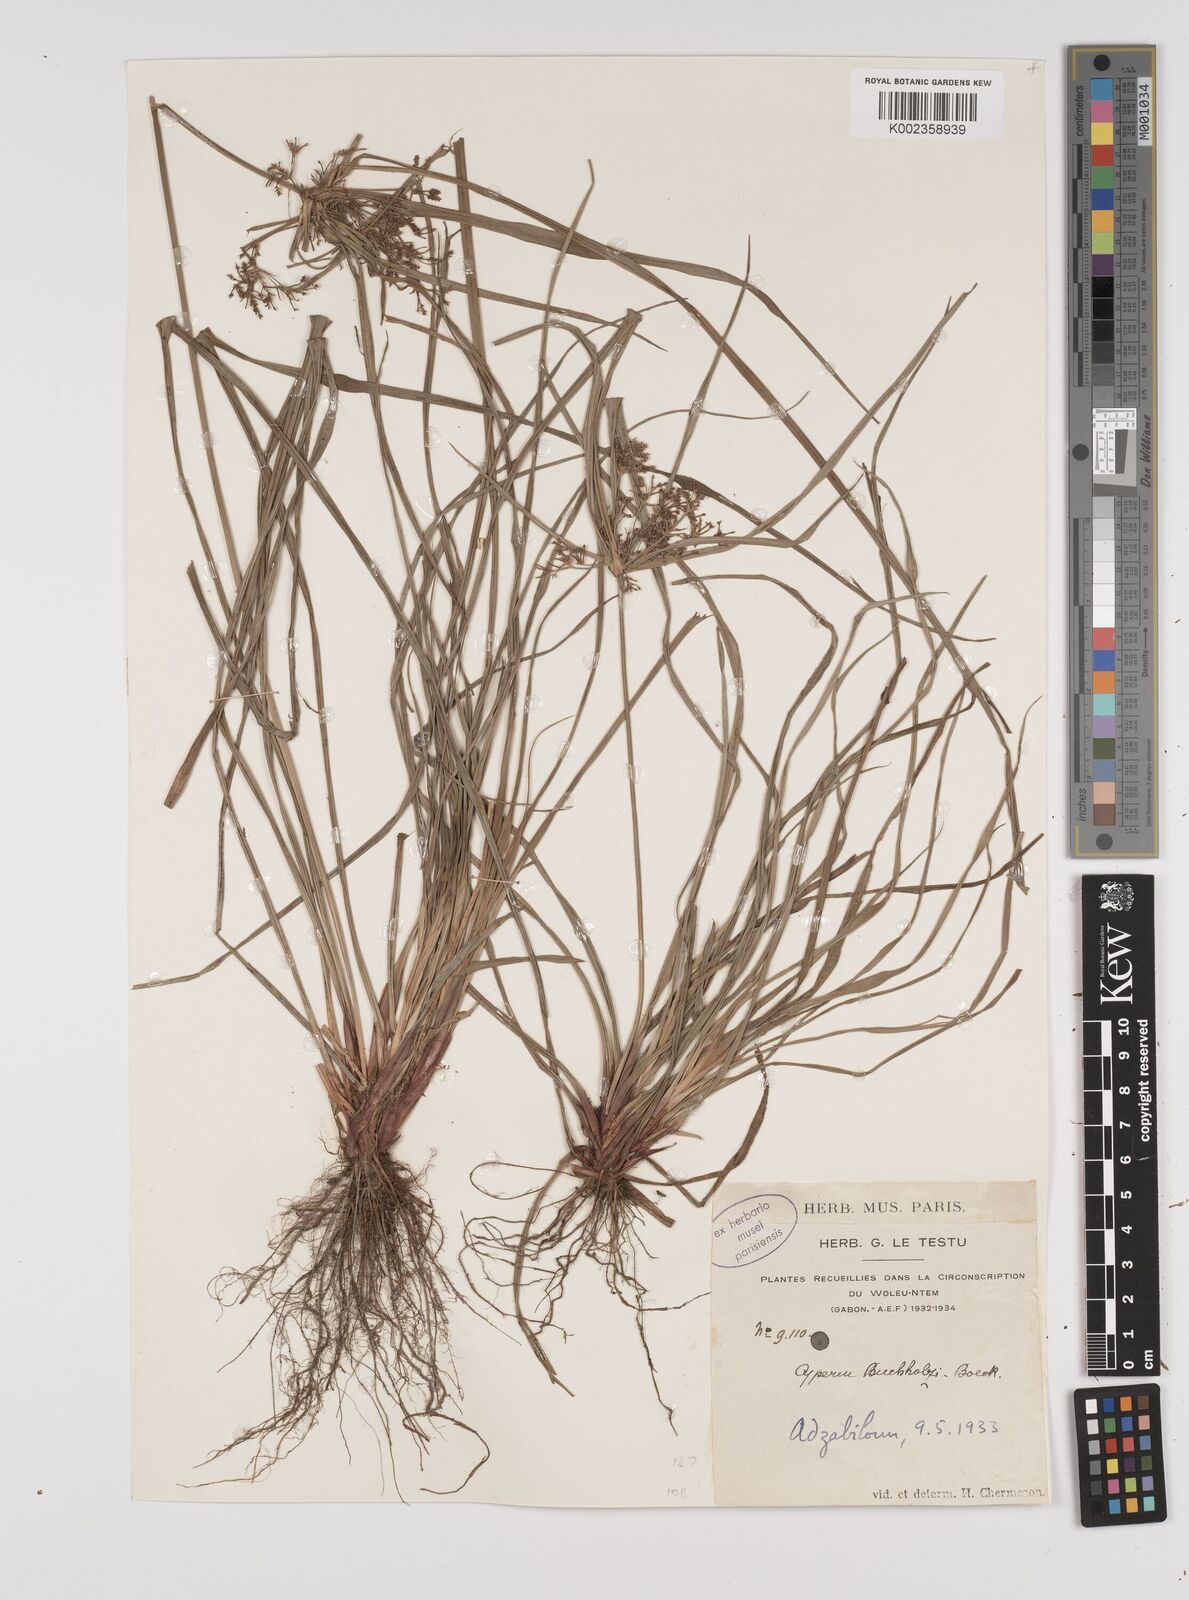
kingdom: Plantae
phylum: Tracheophyta
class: Liliopsida
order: Poales
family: Cyperaceae
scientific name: Cyperaceae
